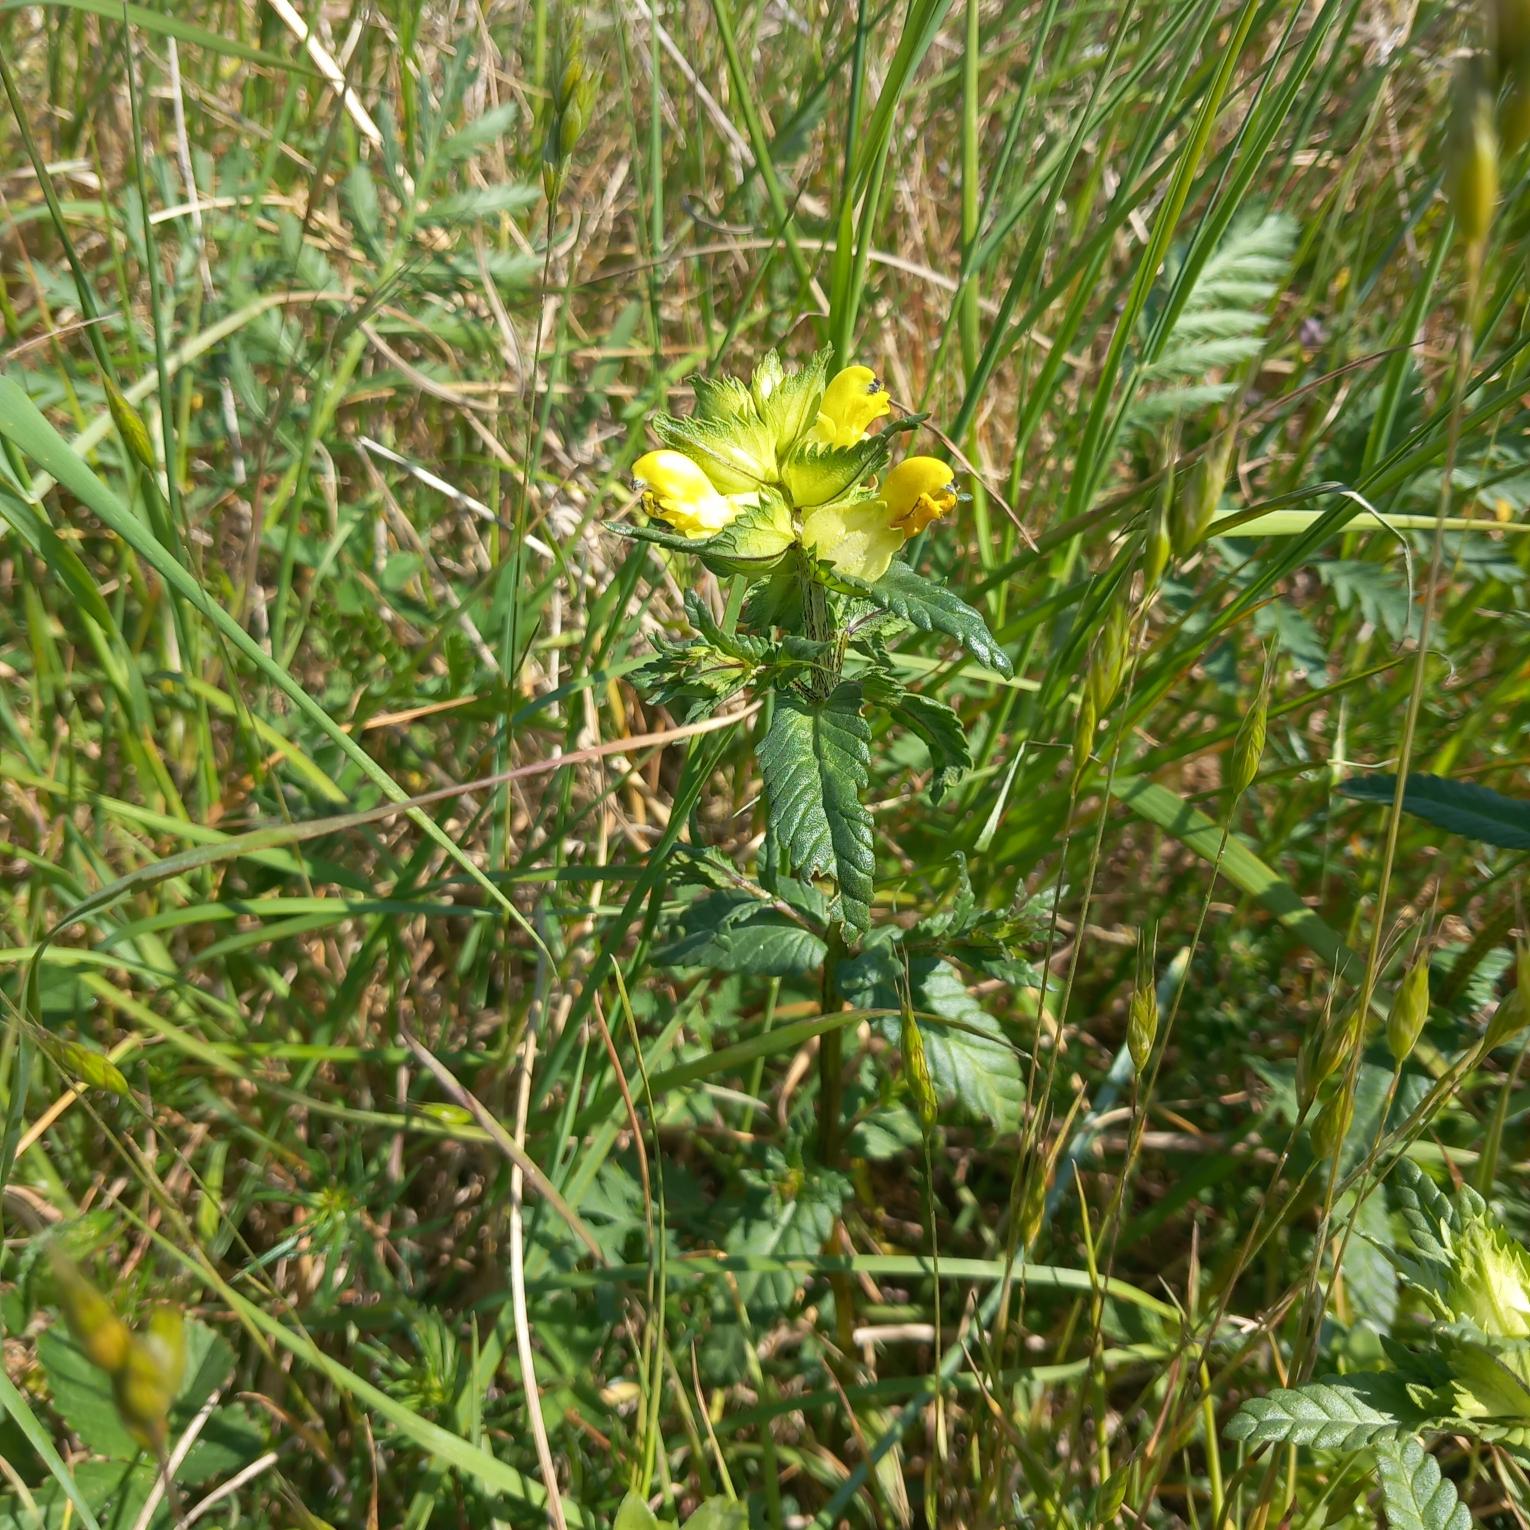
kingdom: Plantae
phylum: Tracheophyta
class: Magnoliopsida
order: Lamiales
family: Orobanchaceae
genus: Rhinanthus
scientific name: Rhinanthus
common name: Stor skjaller
